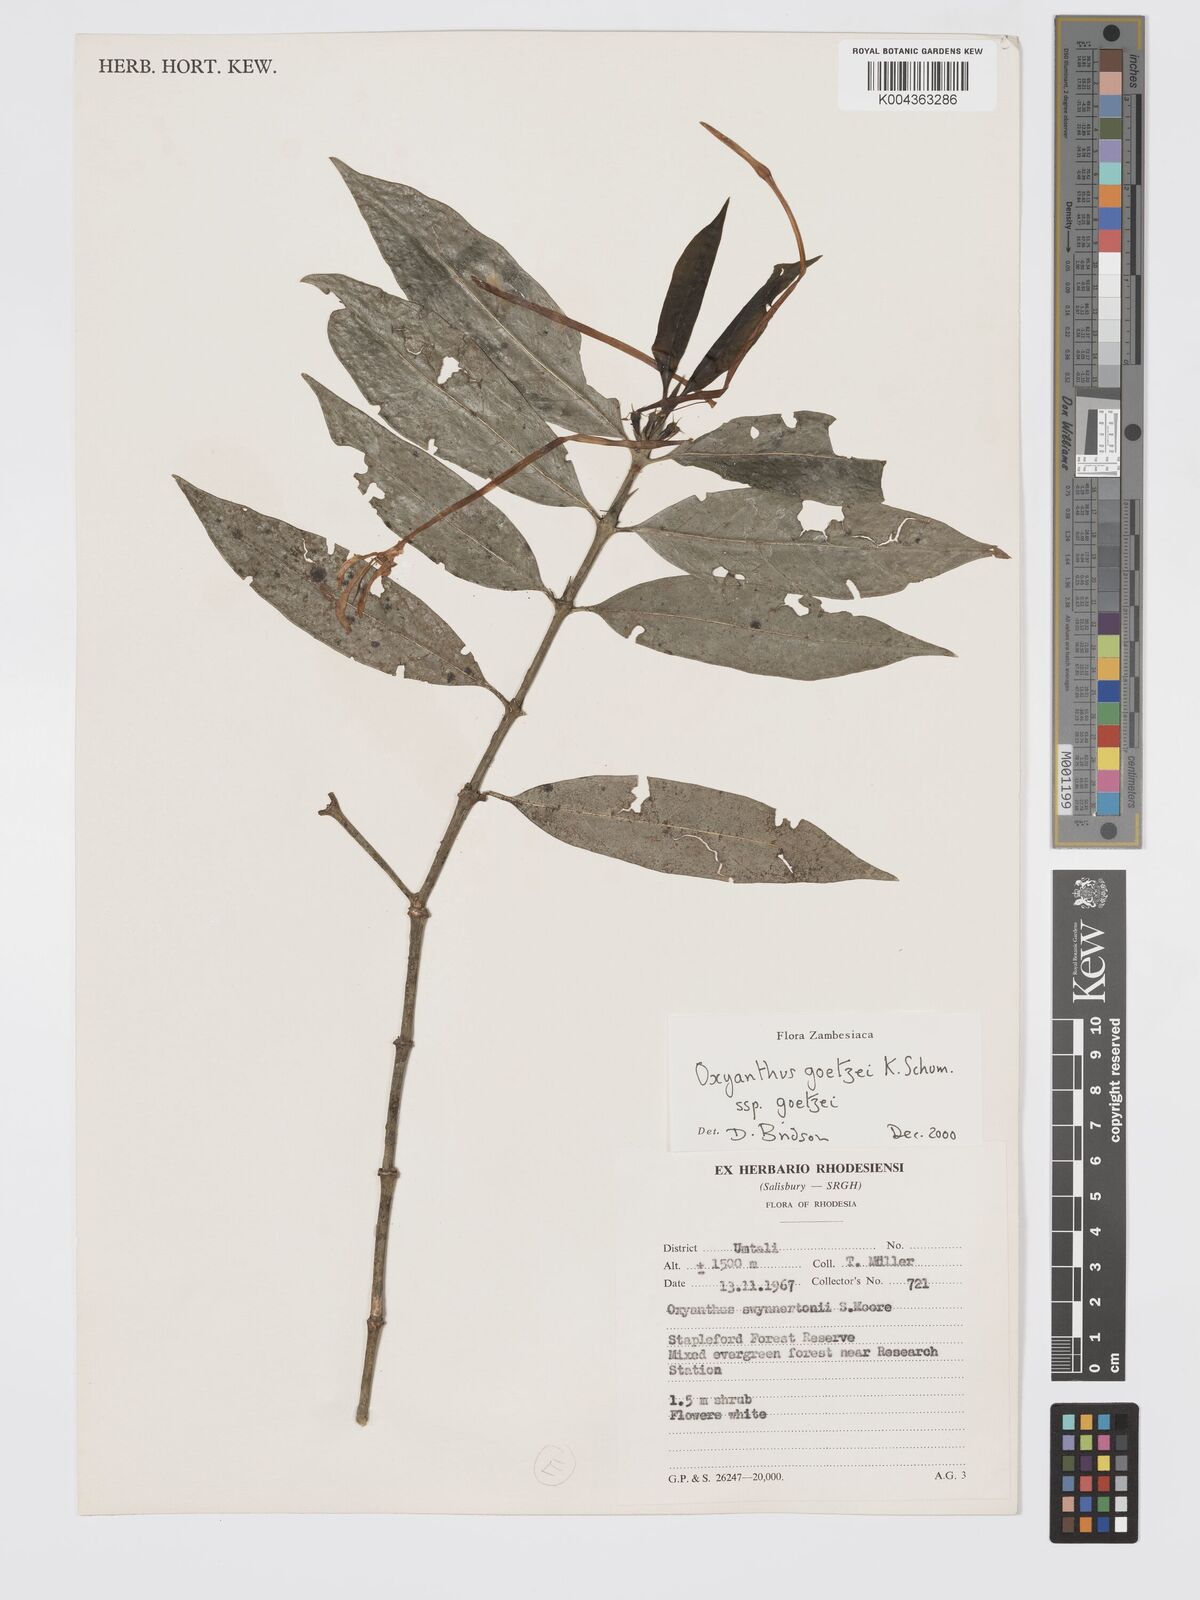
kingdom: Plantae
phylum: Tracheophyta
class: Magnoliopsida
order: Gentianales
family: Rubiaceae
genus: Oxyanthus
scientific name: Oxyanthus goetzei
